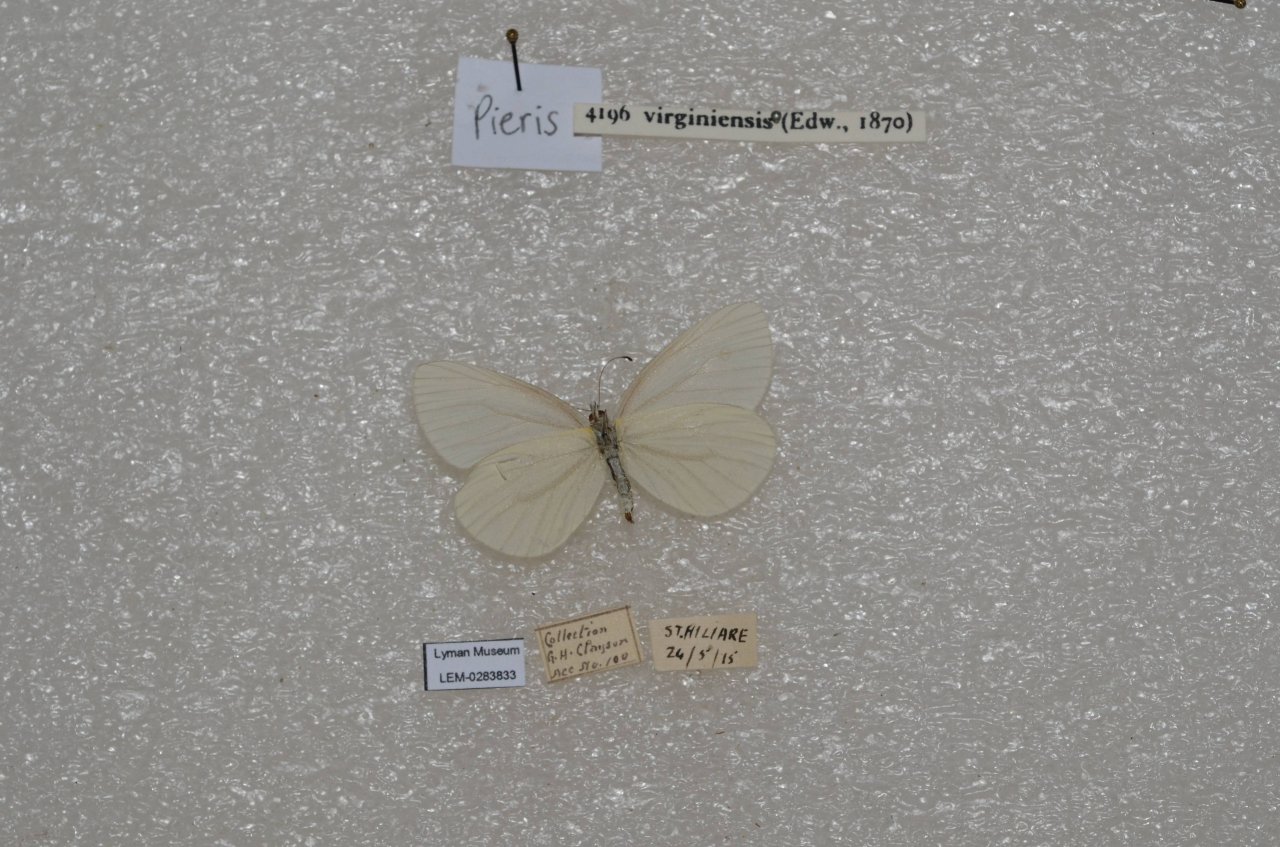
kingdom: Animalia
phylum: Arthropoda
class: Insecta
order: Lepidoptera
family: Pieridae
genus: Pieris
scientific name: Pieris virginiensis
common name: West Virginia White
